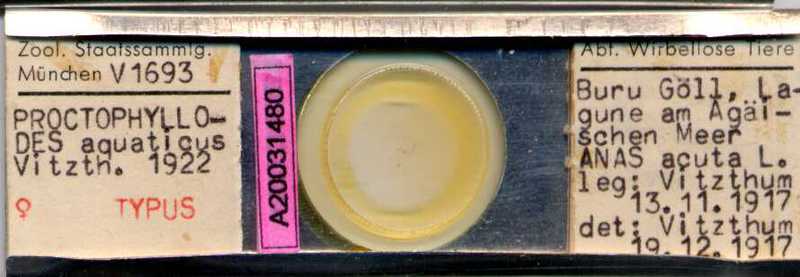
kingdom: Animalia
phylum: Arthropoda
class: Arachnida
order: Sarcoptiformes
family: Proctophyllodidae
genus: Proctophyllodes
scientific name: Proctophyllodes picae
